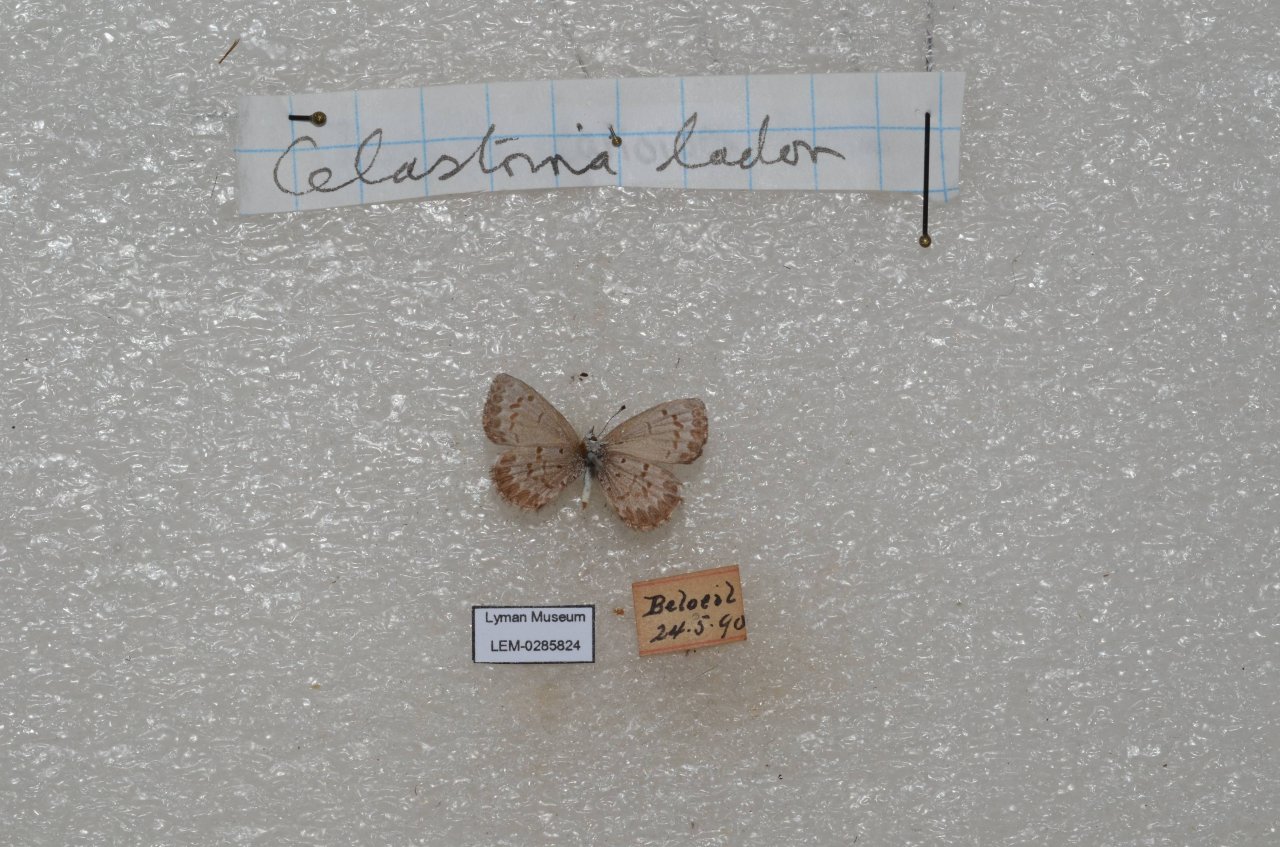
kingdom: Animalia
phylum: Arthropoda
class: Insecta
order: Lepidoptera
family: Lycaenidae
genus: Celastrina
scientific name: Celastrina lucia
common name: Northern Spring Azure
